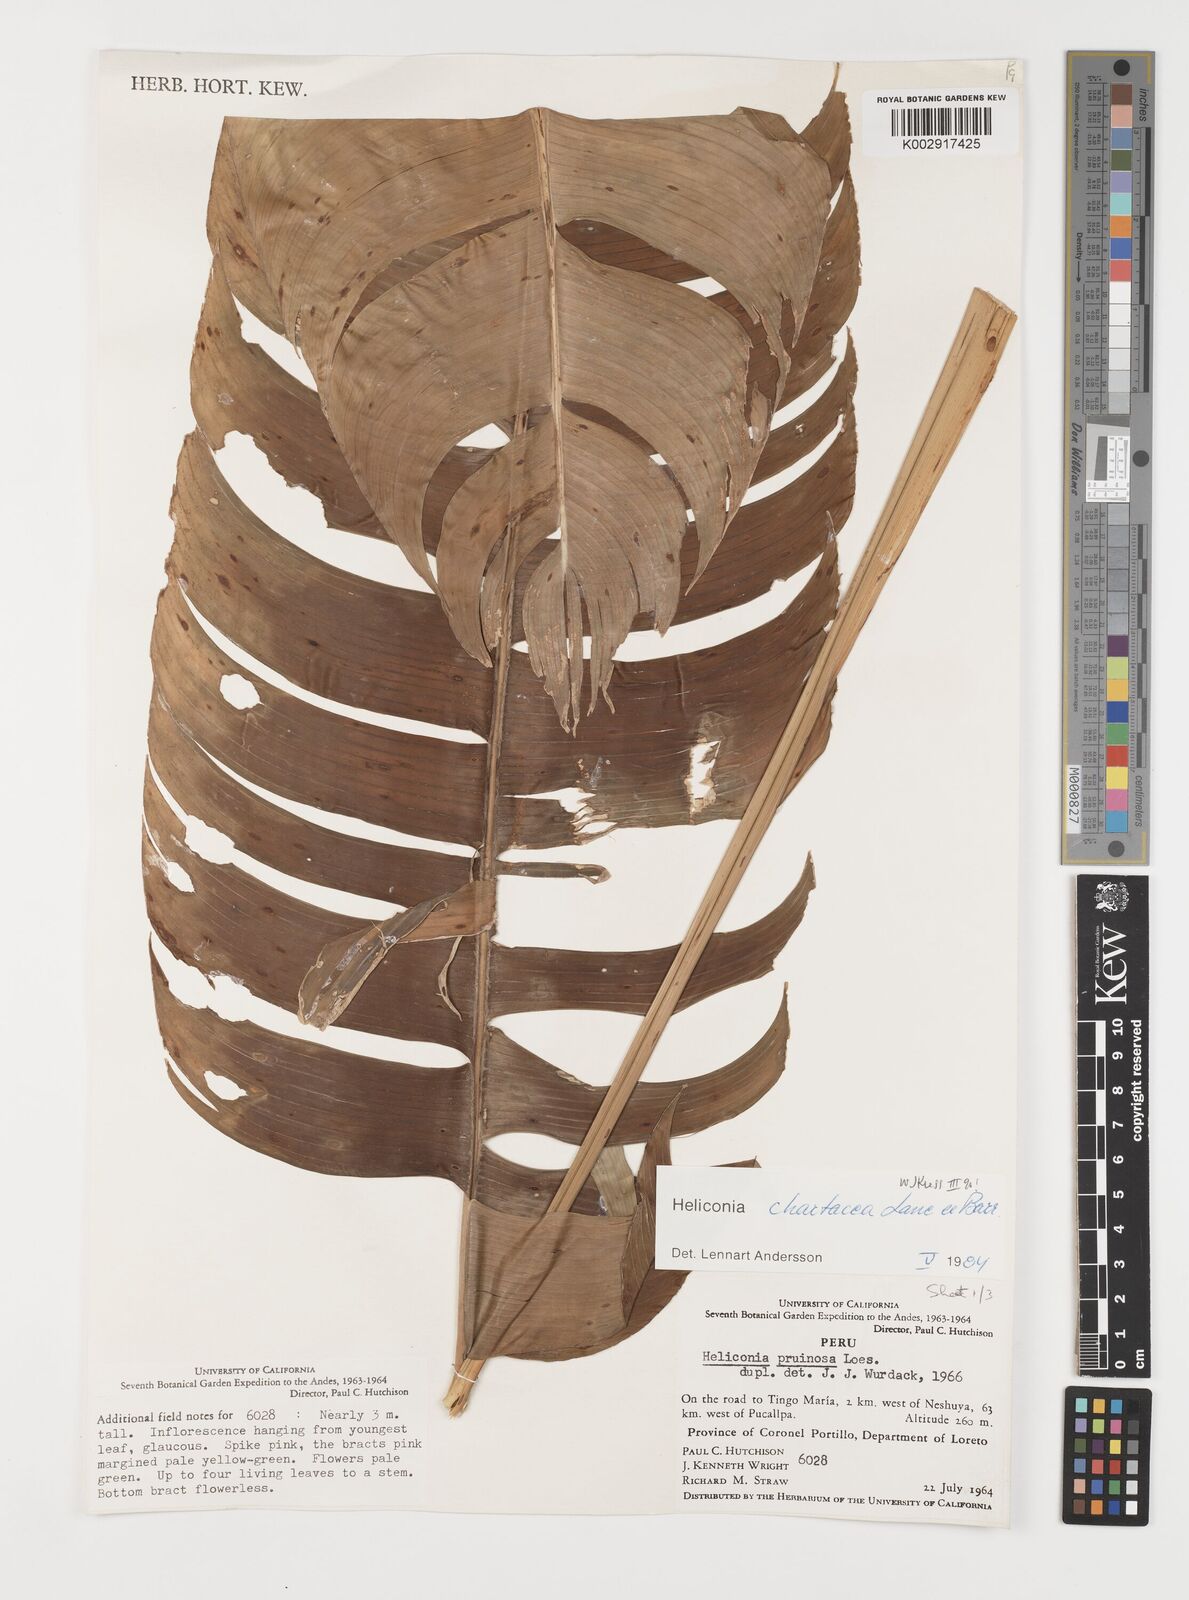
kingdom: Plantae
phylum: Tracheophyta
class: Liliopsida
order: Zingiberales
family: Heliconiaceae
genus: Heliconia
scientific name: Heliconia chartacea
